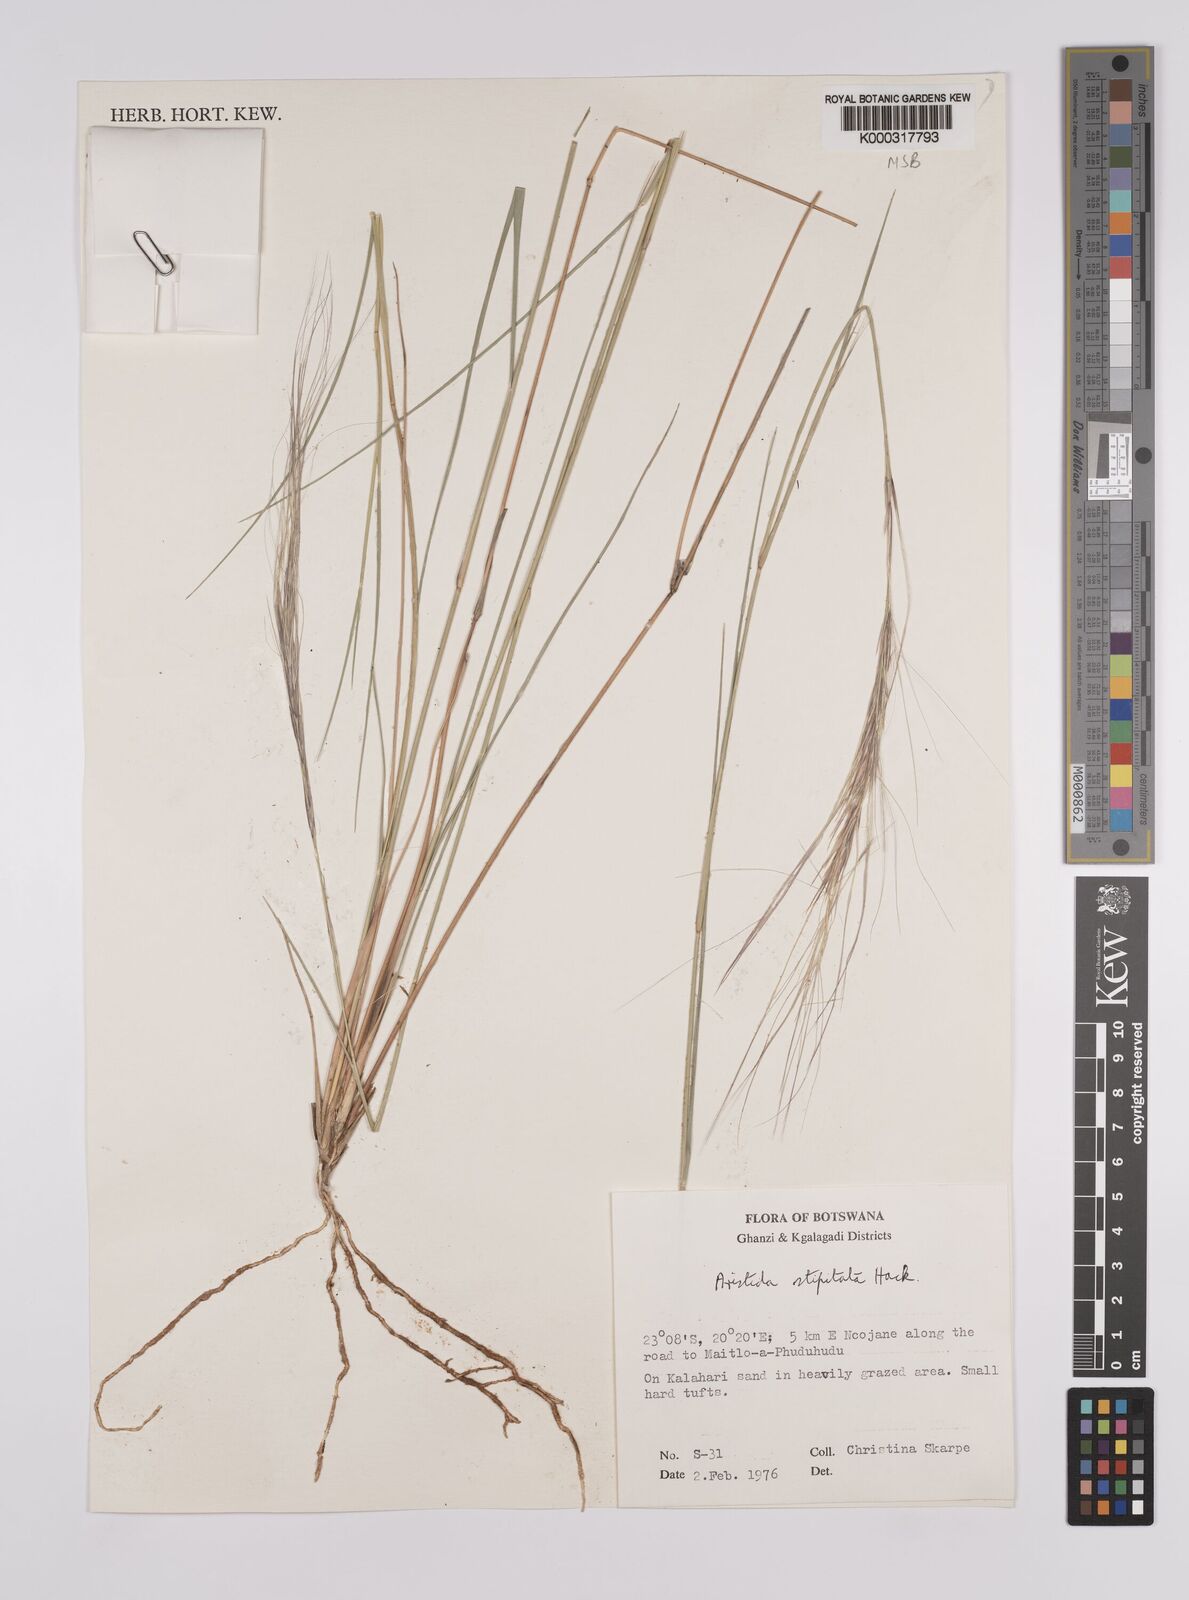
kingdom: Plantae
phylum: Tracheophyta
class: Liliopsida
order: Poales
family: Poaceae
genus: Aristida
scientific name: Aristida stipitata
